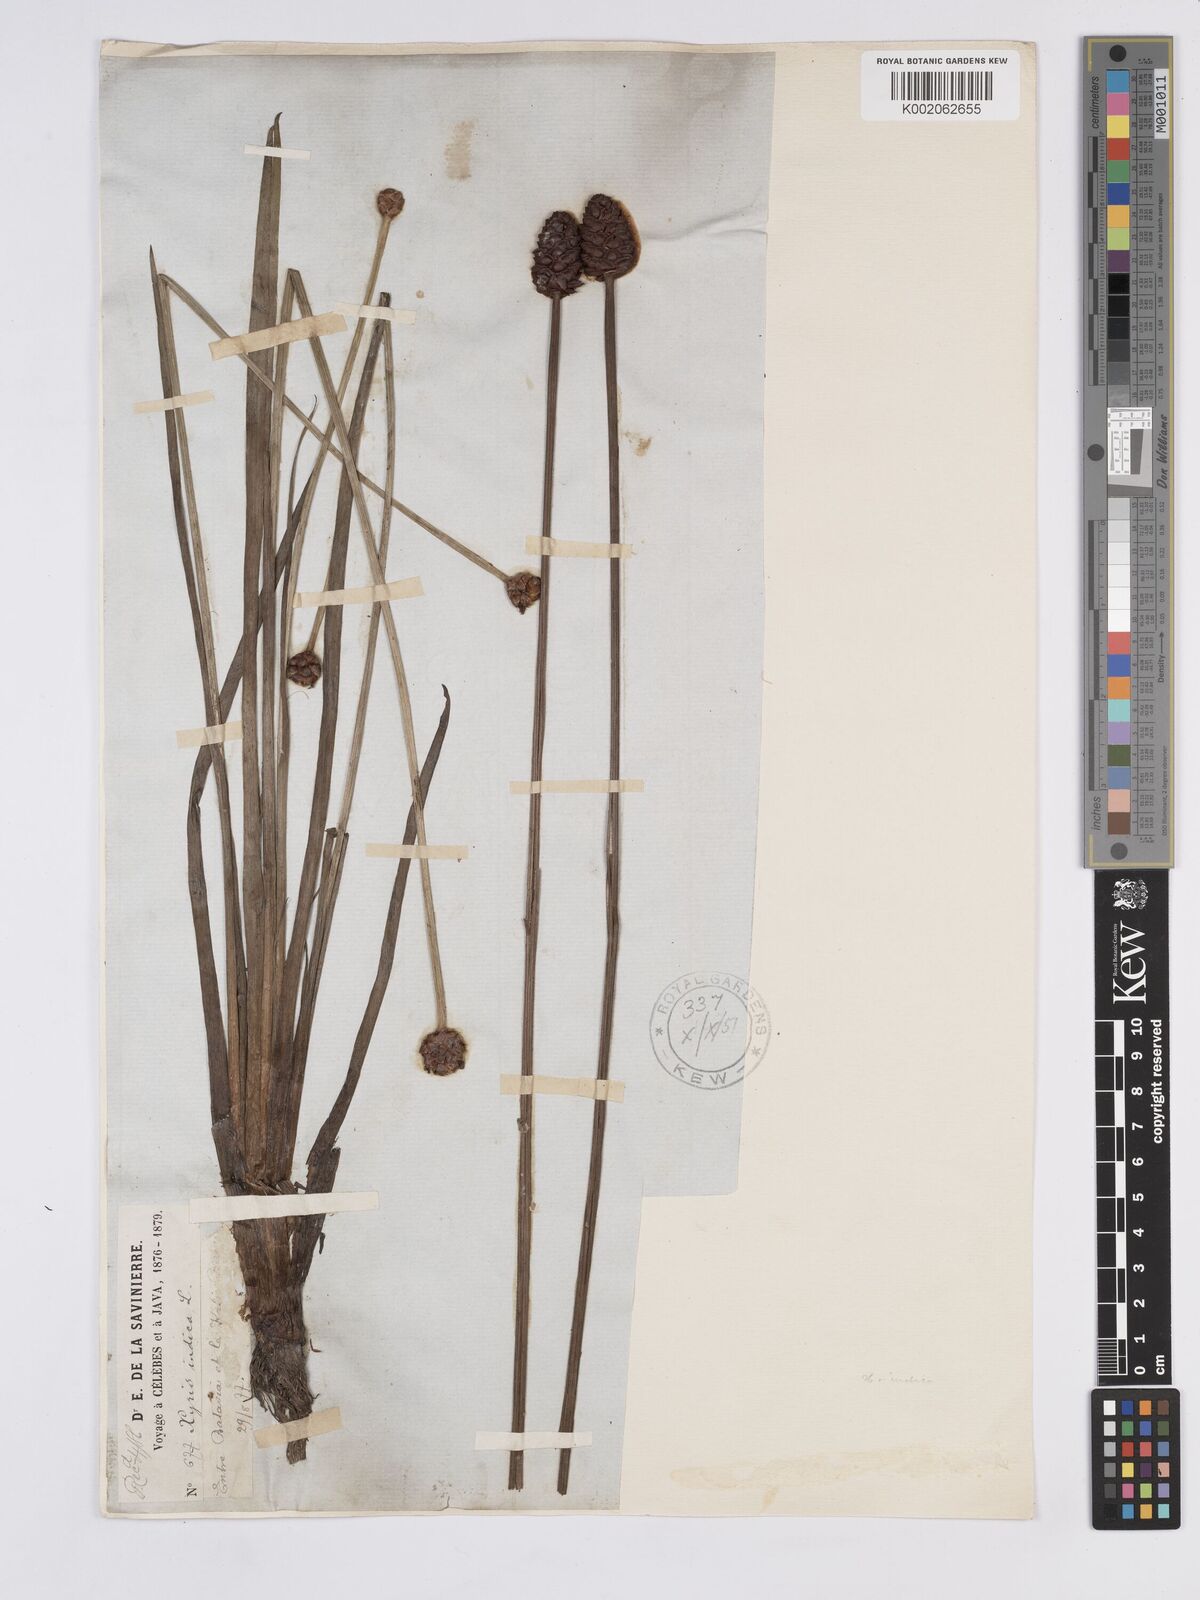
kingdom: Plantae
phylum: Tracheophyta
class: Liliopsida
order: Poales
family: Xyridaceae
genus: Xyris
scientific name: Xyris indica
